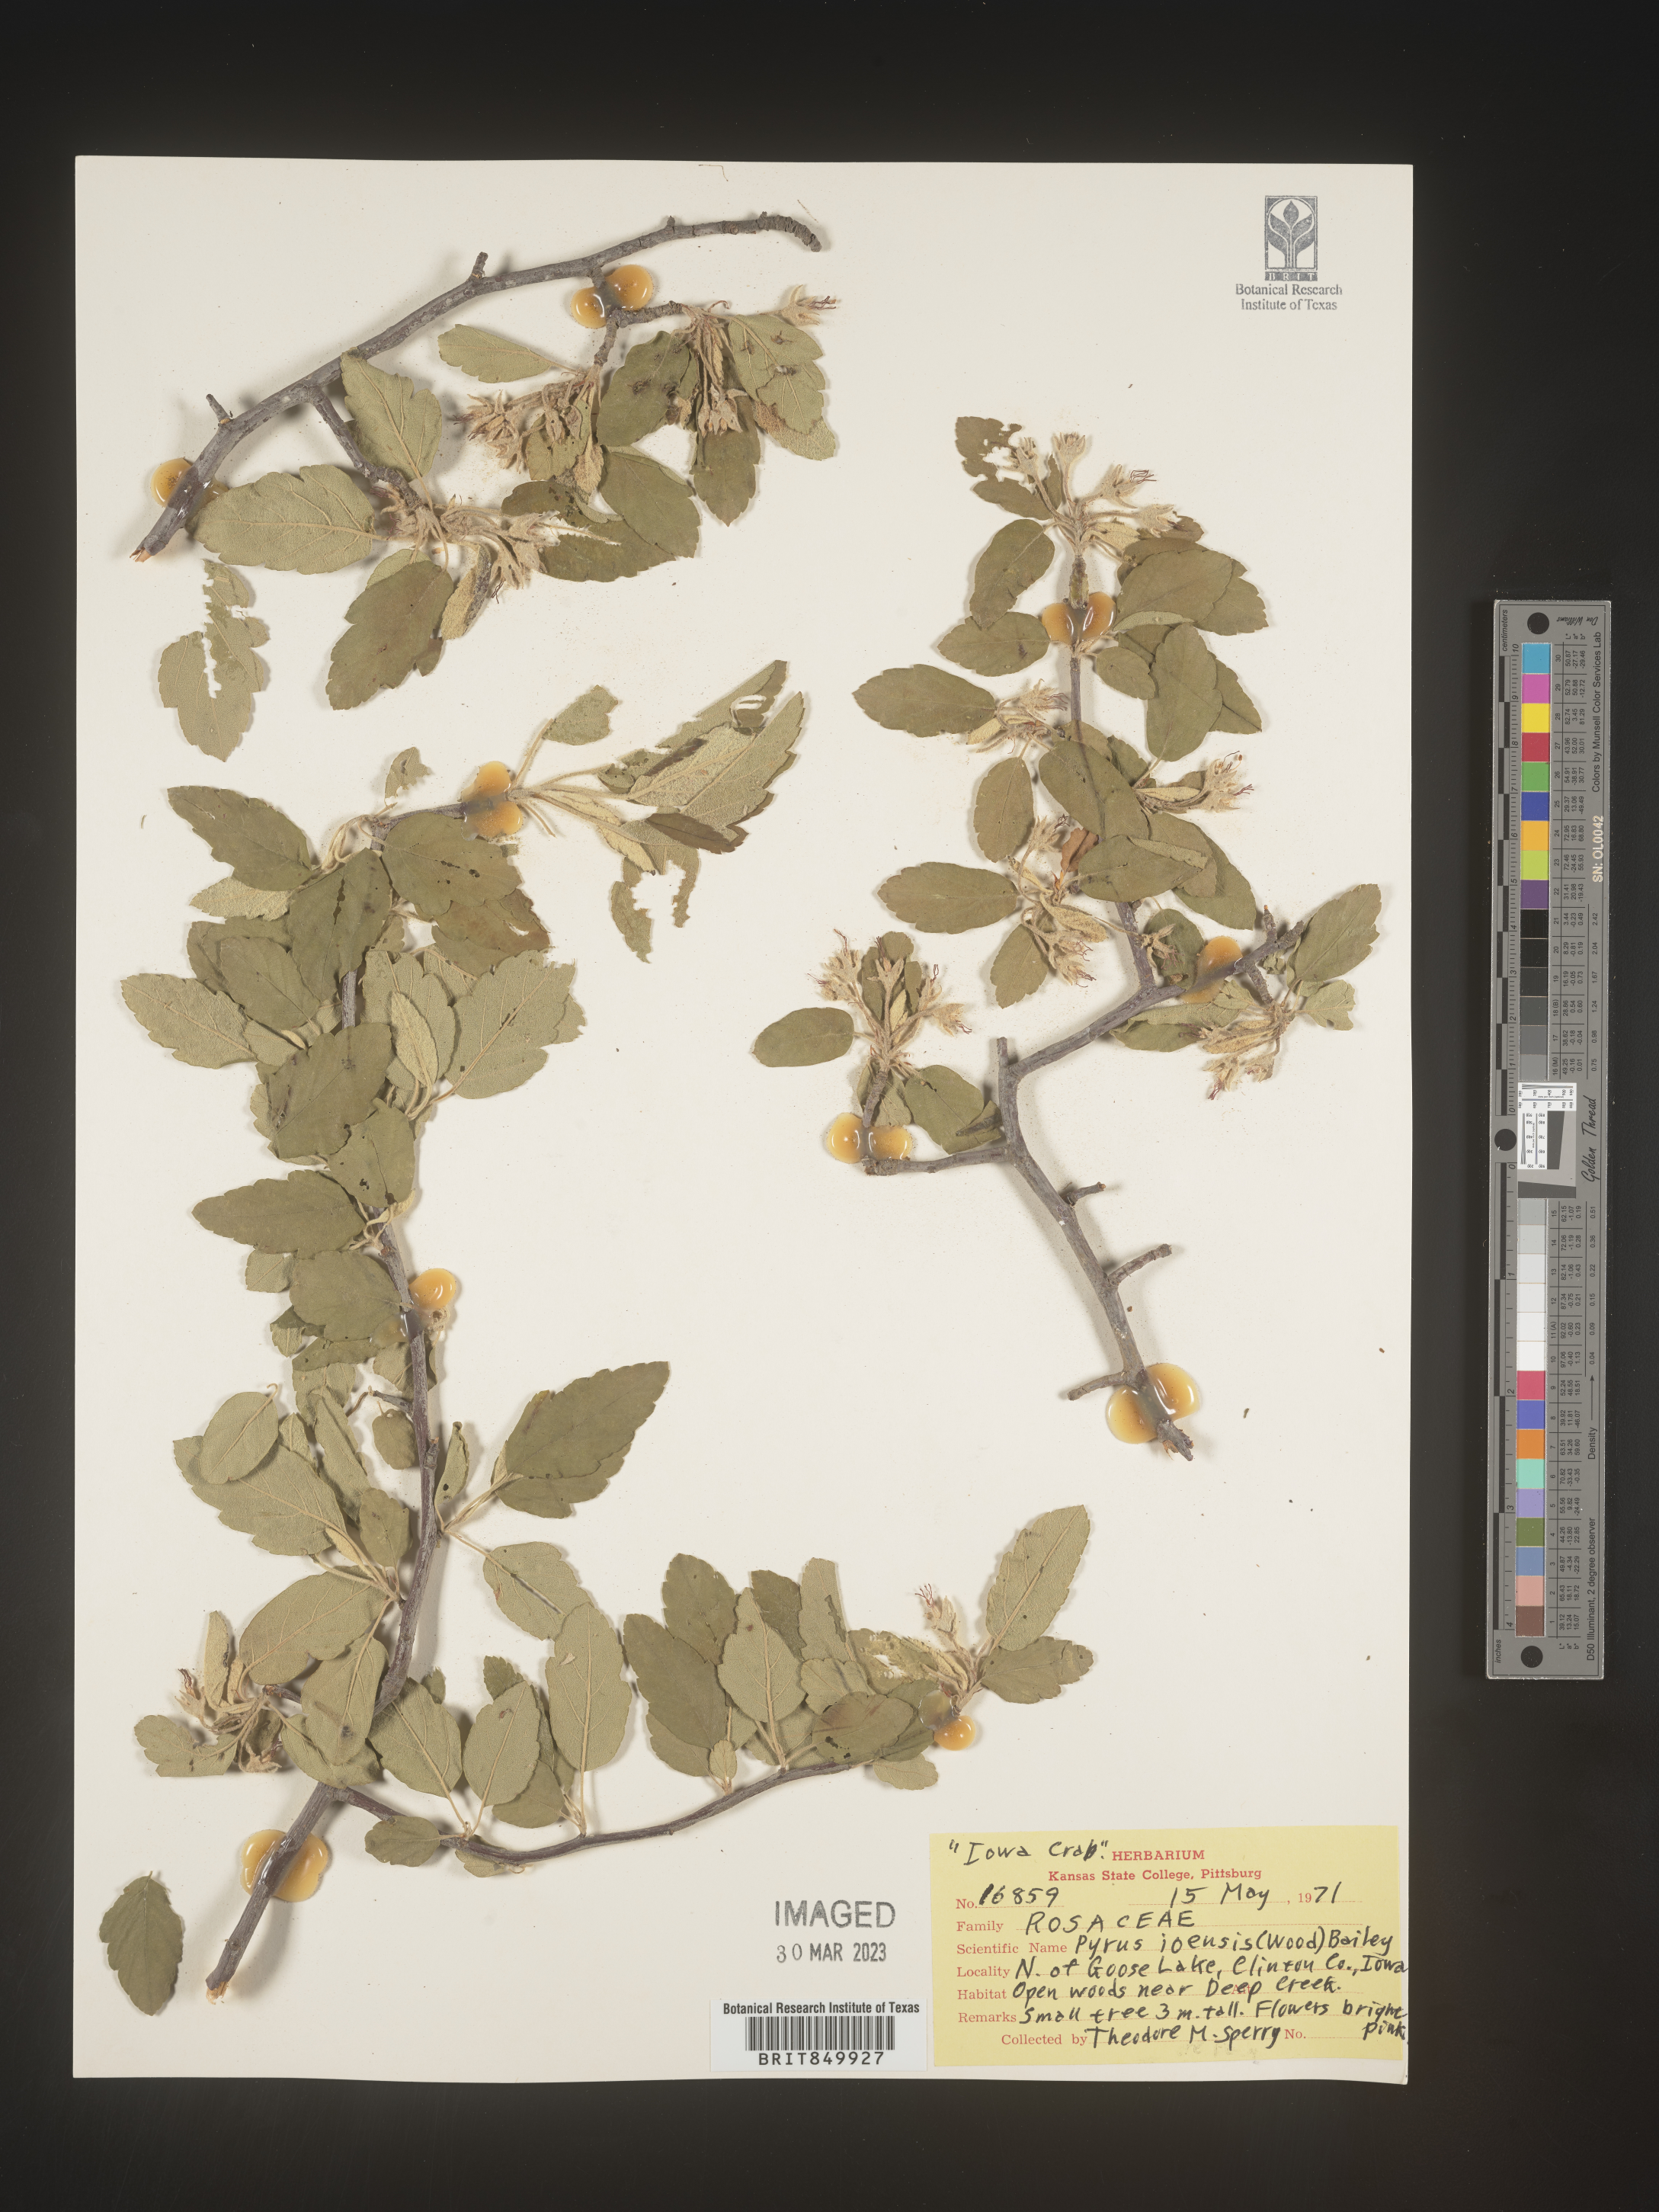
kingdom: Plantae
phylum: Tracheophyta
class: Magnoliopsida
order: Rosales
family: Rosaceae
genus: Pyrus
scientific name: Pyrus
